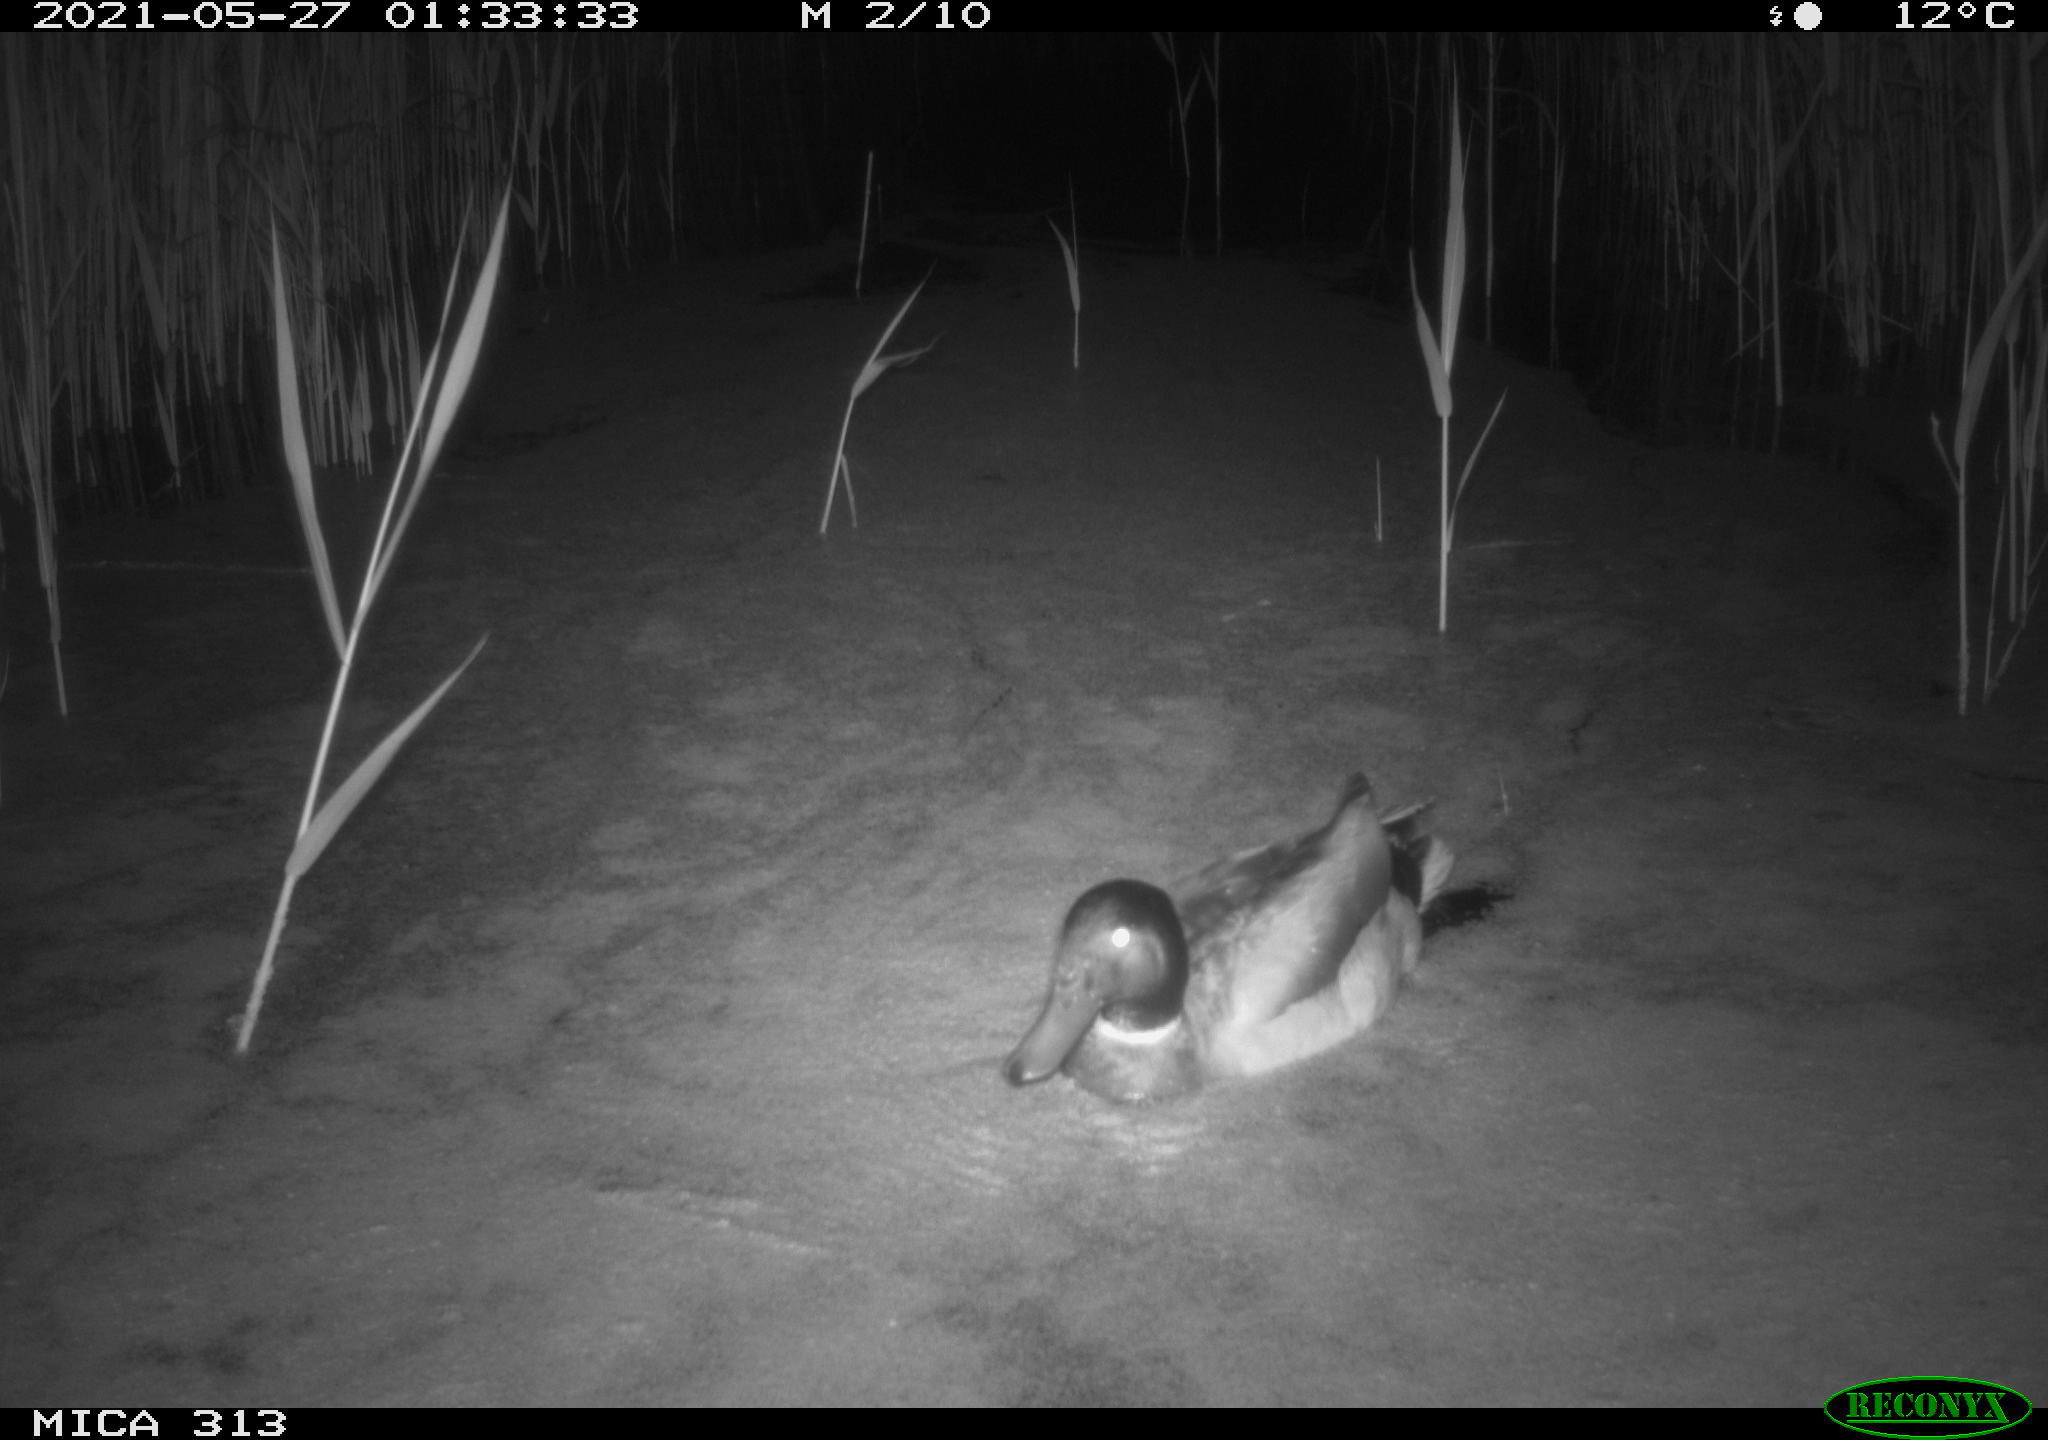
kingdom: Animalia
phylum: Chordata
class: Aves
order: Anseriformes
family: Anatidae
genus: Anas
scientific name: Anas platyrhynchos
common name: Mallard
